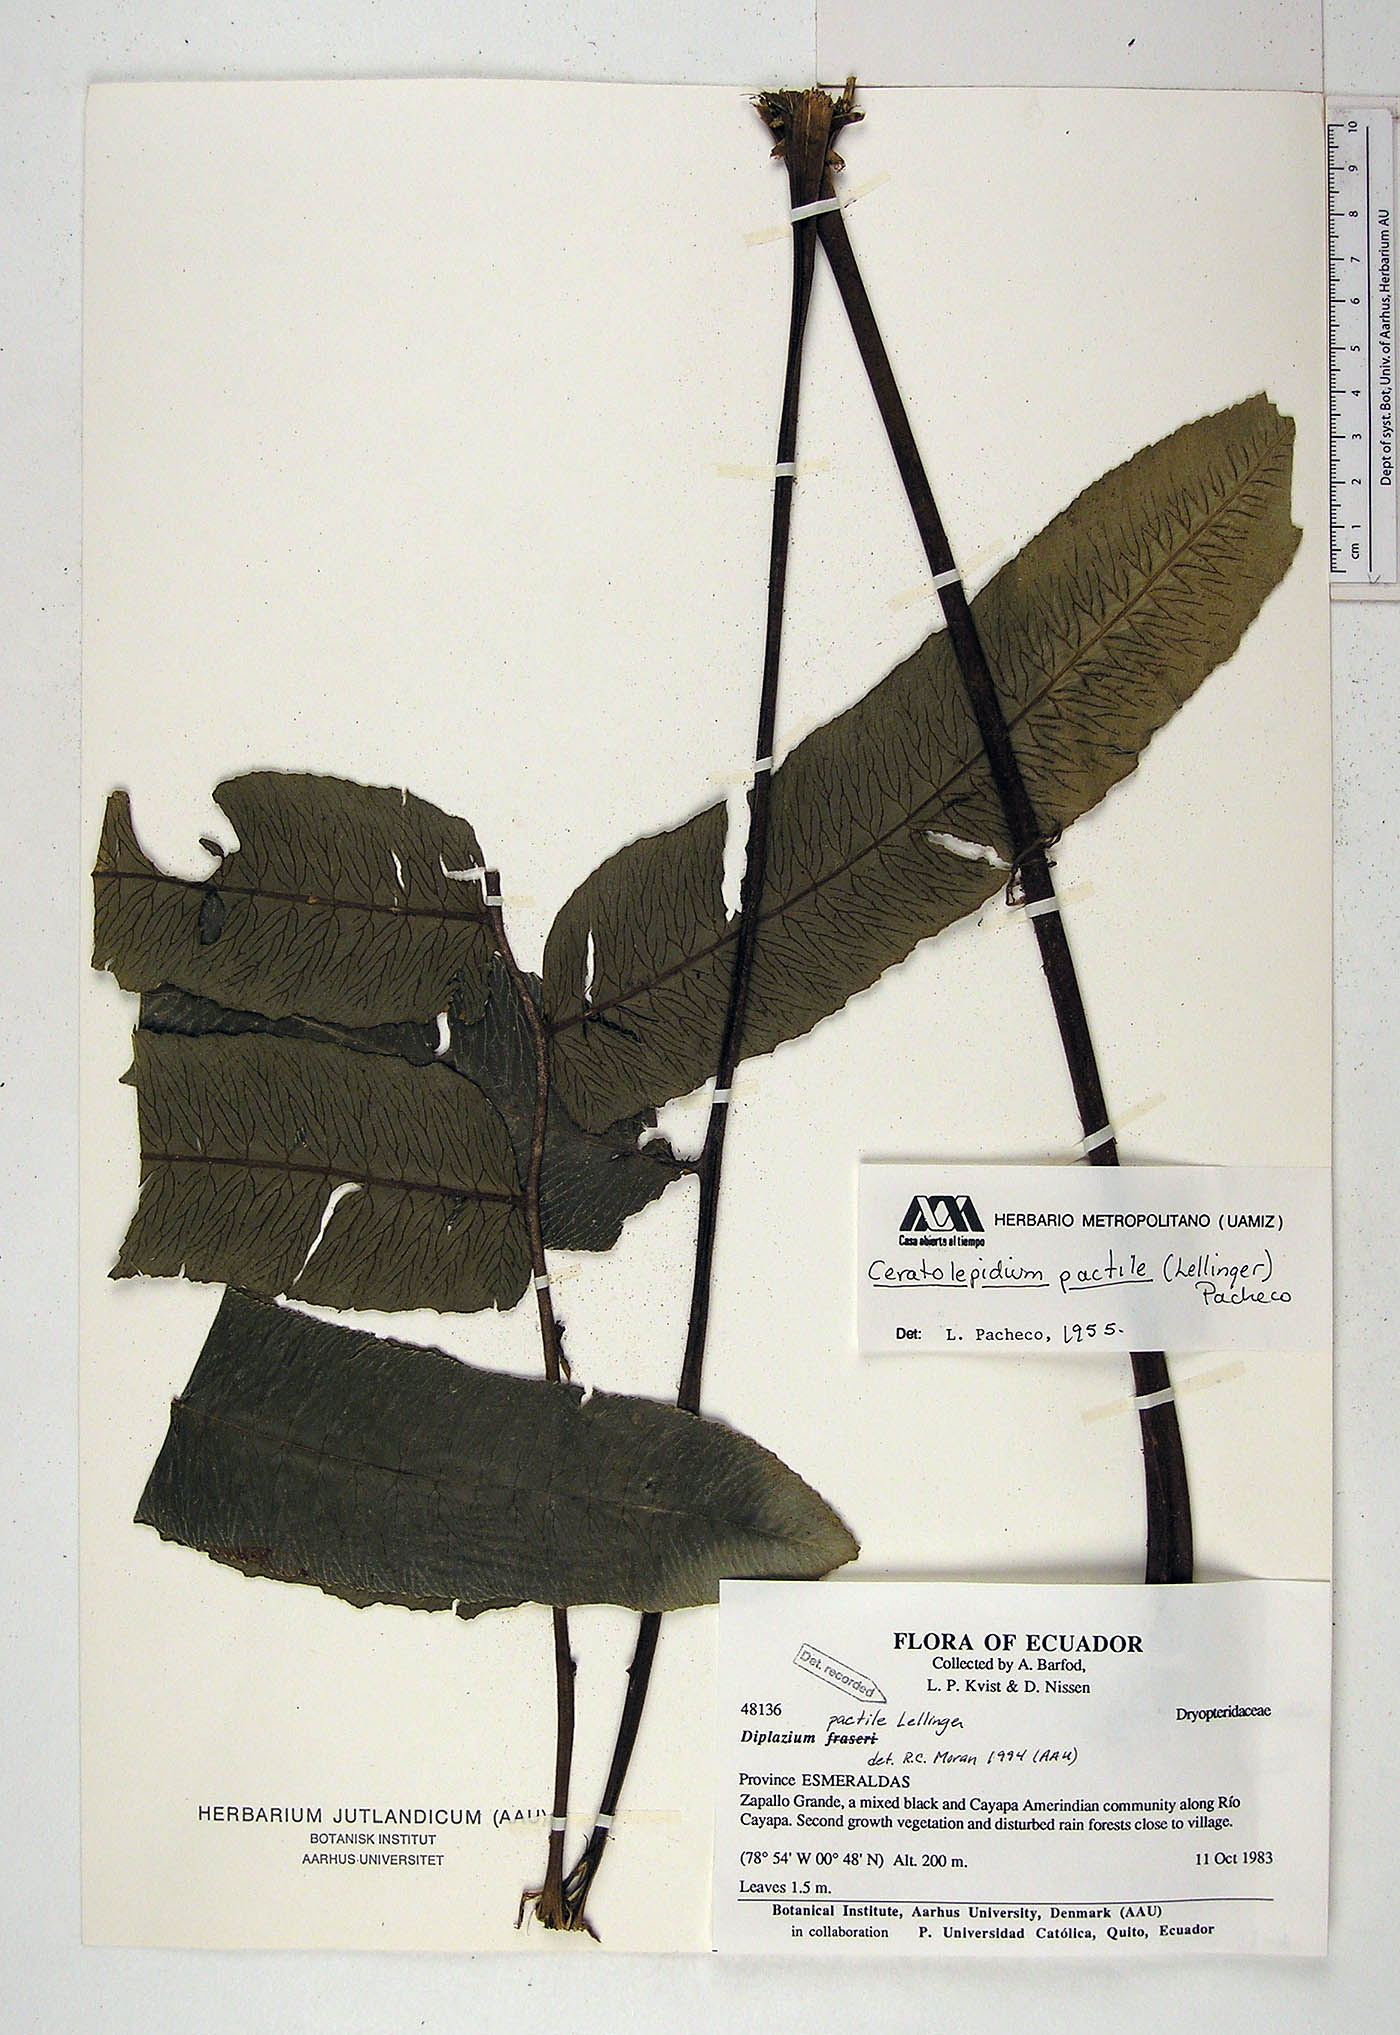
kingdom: Plantae
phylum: Tracheophyta
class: Polypodiopsida
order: Polypodiales
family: Athyriaceae
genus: Diplazium
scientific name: Diplazium pactile
